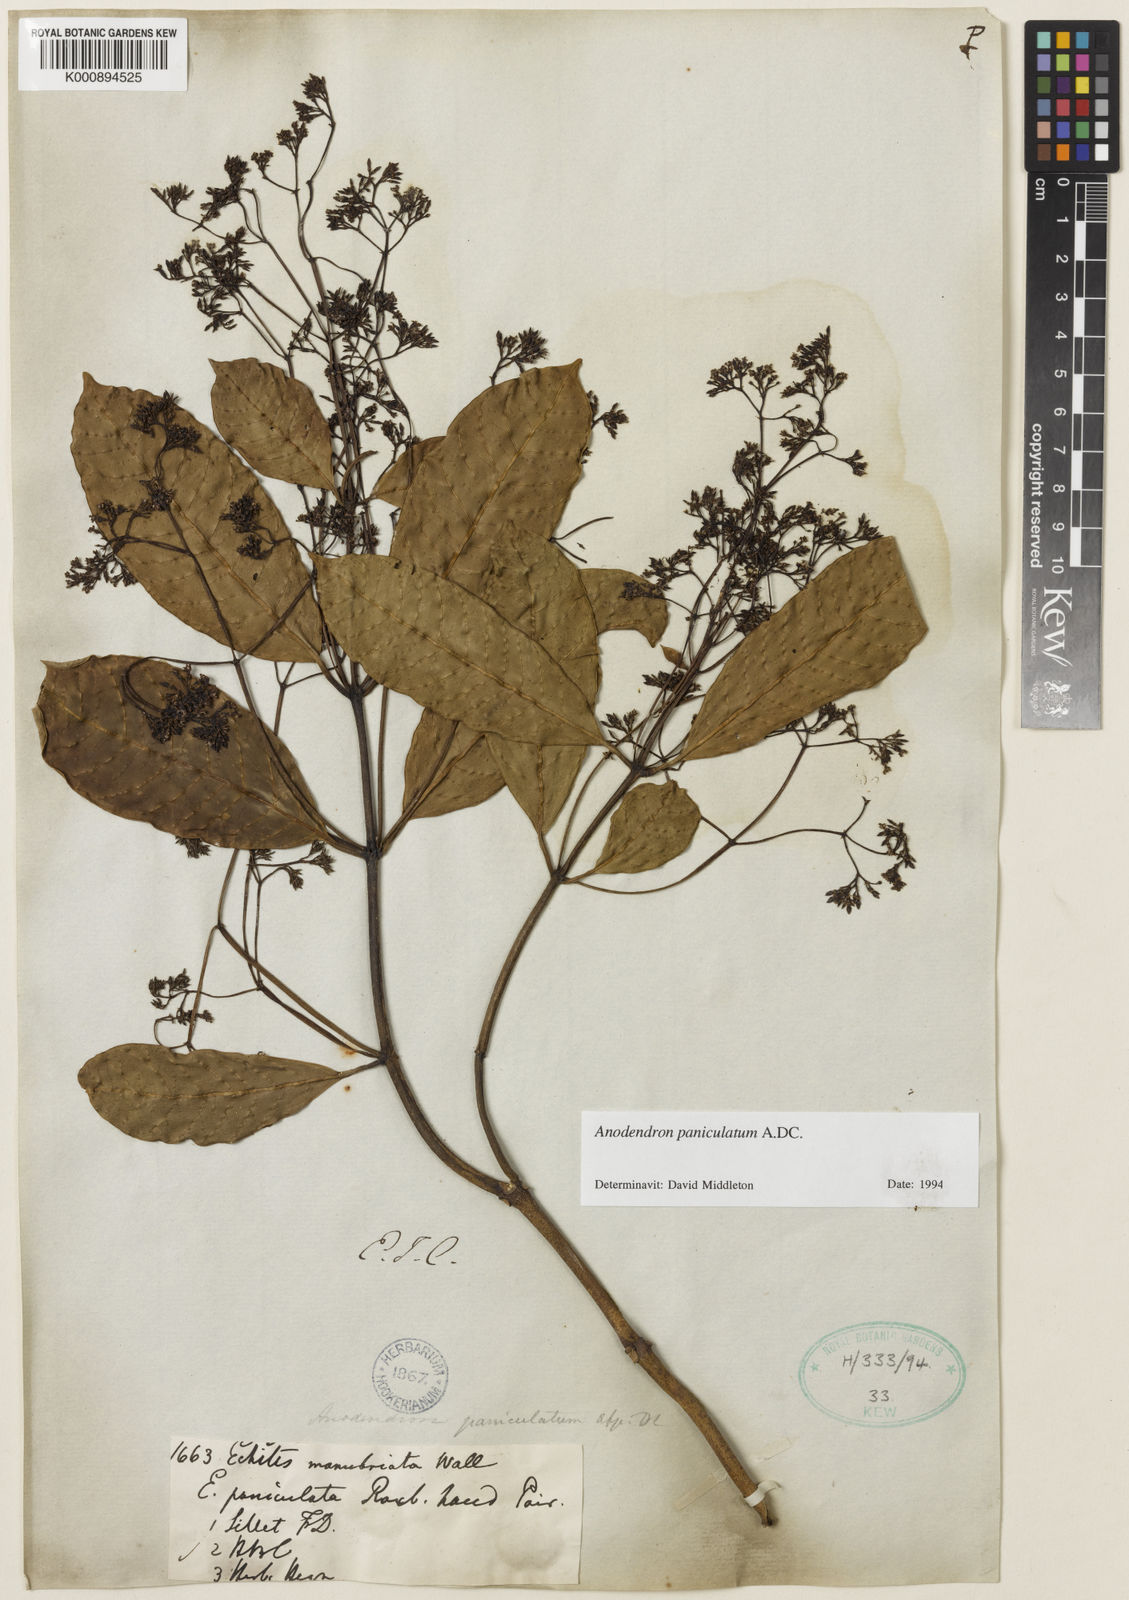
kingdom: Plantae
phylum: Tracheophyta
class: Magnoliopsida
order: Gentianales
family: Apocynaceae
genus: Anodendron
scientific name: Anodendron parviflorum
